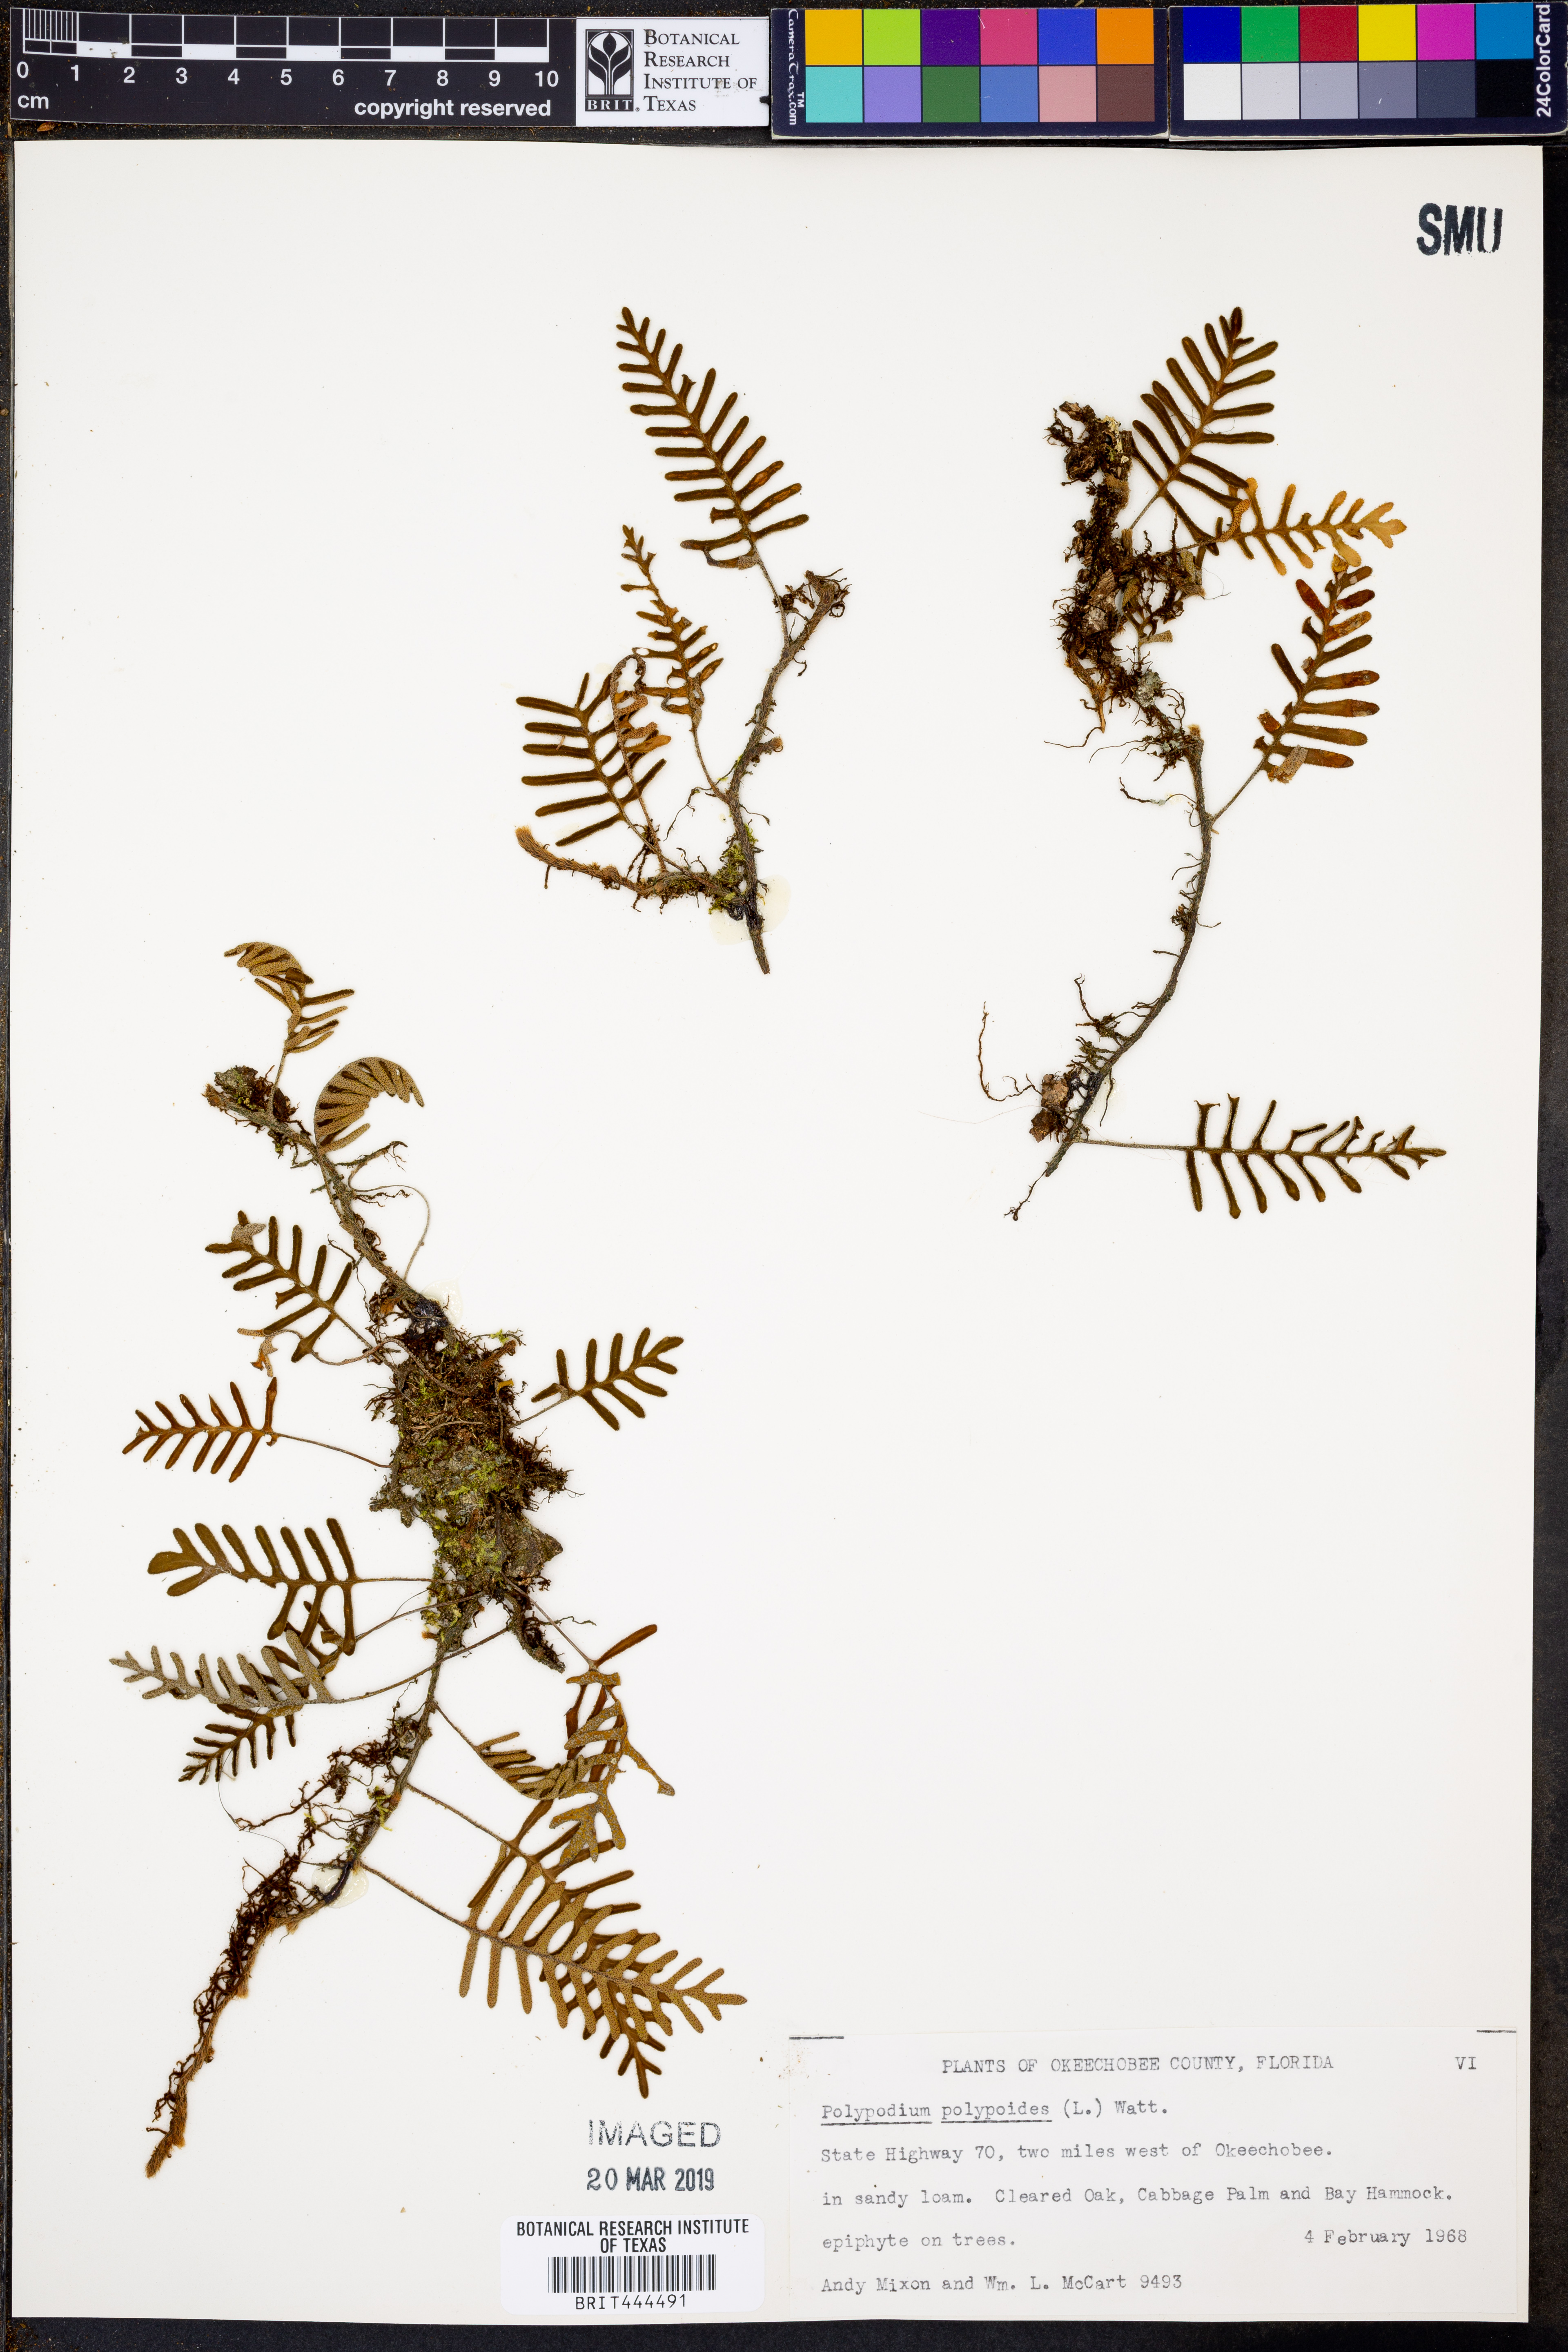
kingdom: Plantae
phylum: Tracheophyta
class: Polypodiopsida
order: Polypodiales
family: Polypodiaceae
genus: Pleopeltis
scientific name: Pleopeltis polypodioides
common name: Resurrection fern
